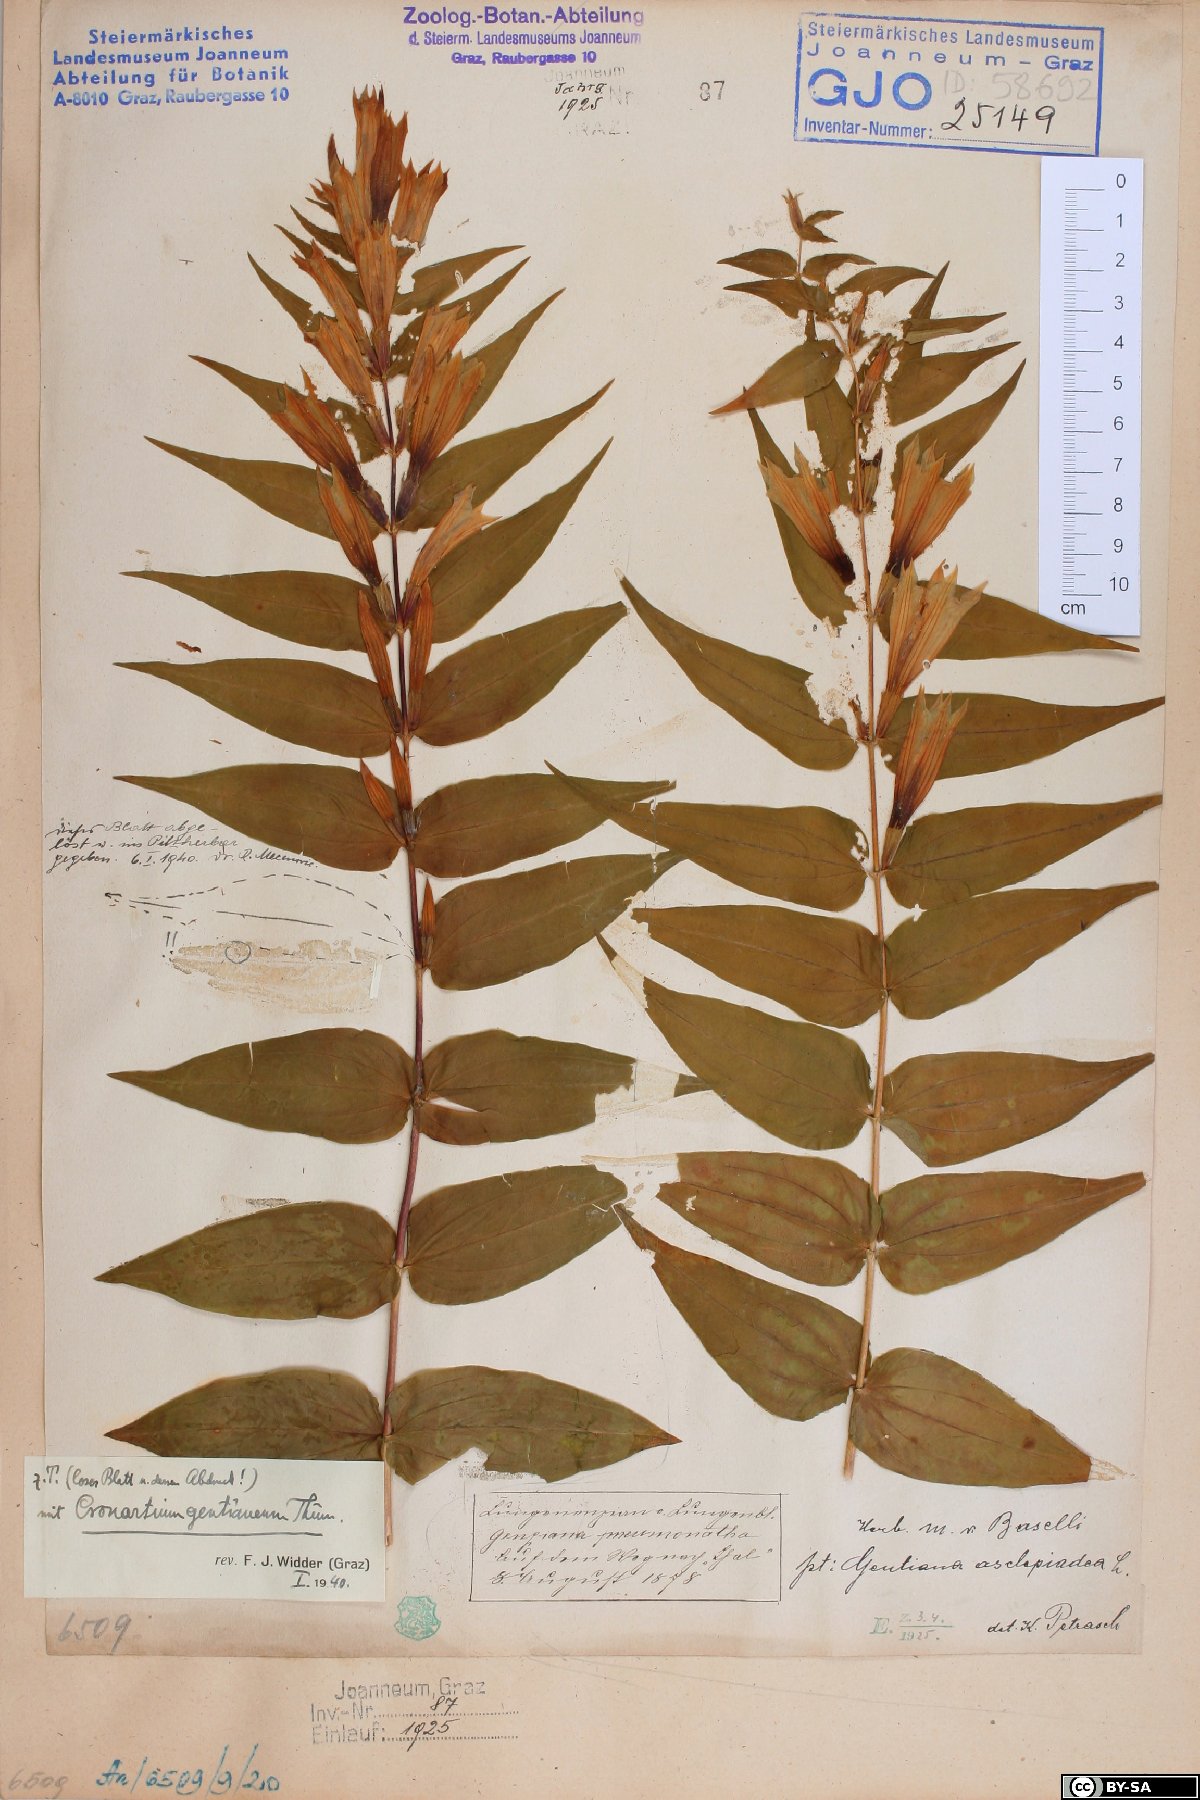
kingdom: Plantae
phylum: Tracheophyta
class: Magnoliopsida
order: Gentianales
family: Gentianaceae
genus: Gentiana
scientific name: Gentiana asclepiadea
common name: Willow gentian
